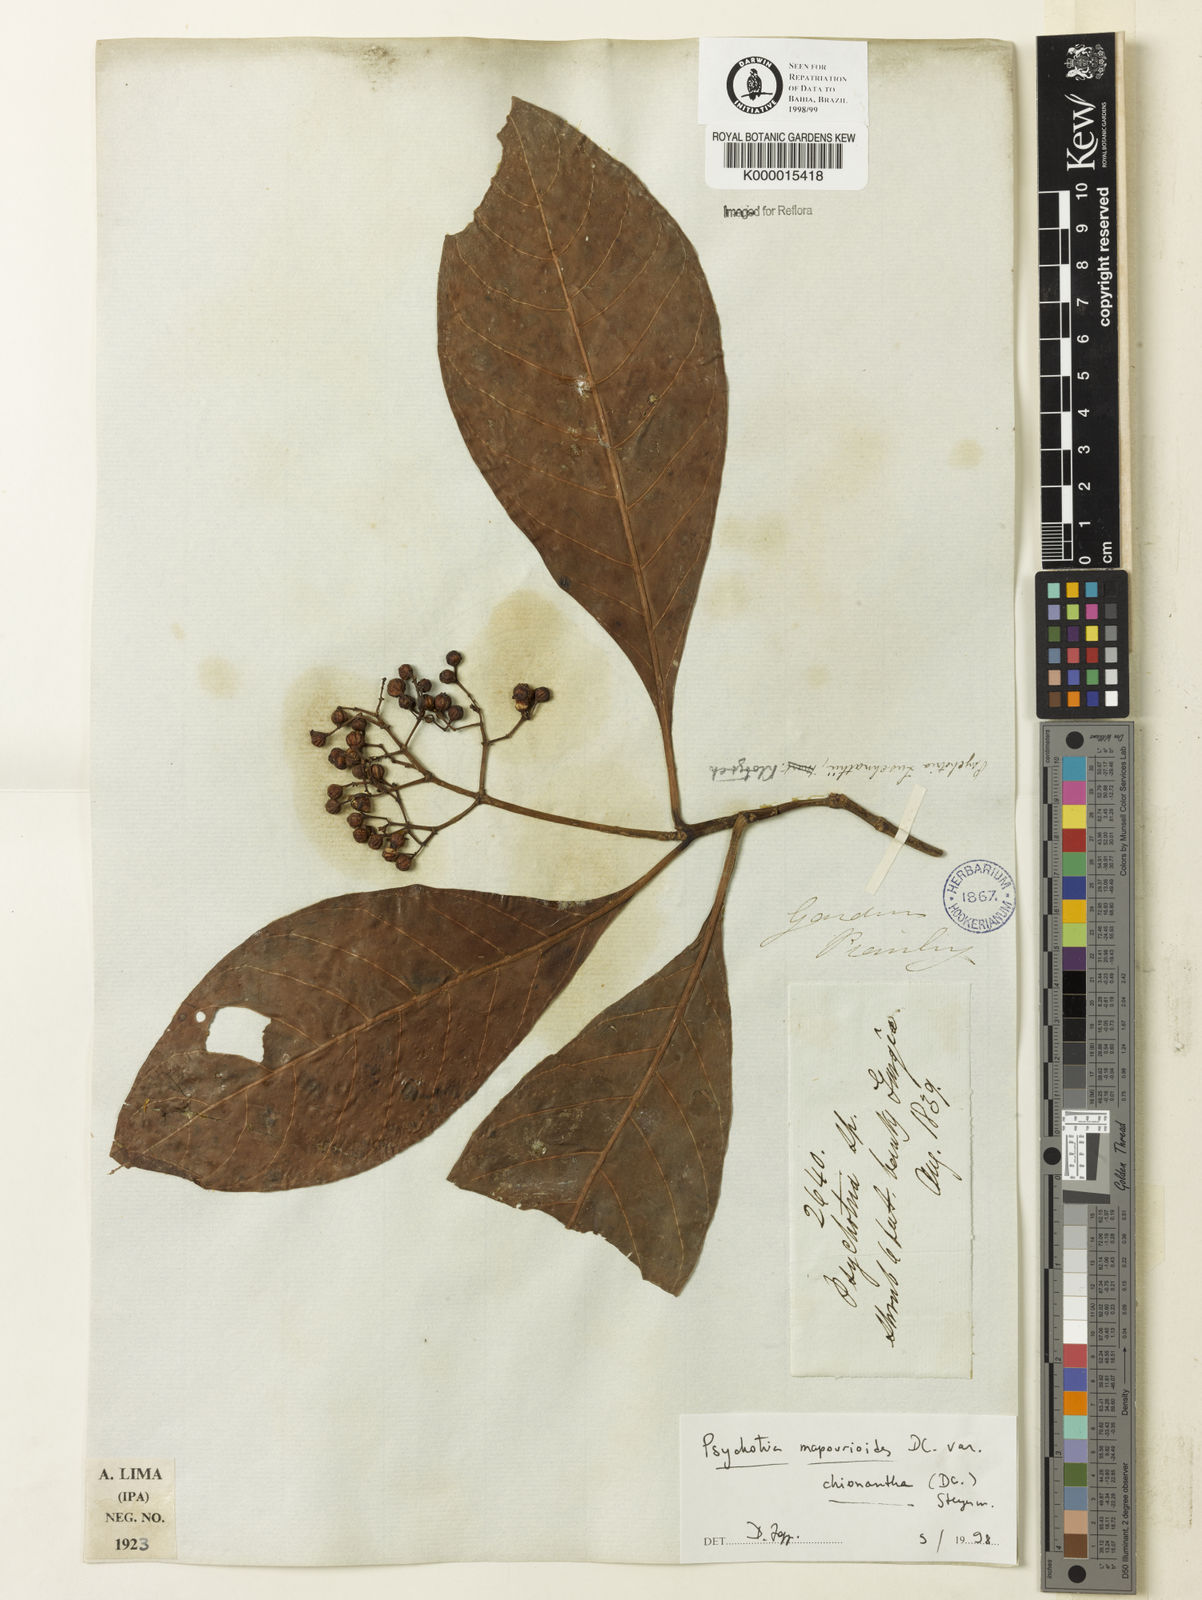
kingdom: Plantae
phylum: Tracheophyta
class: Magnoliopsida
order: Gentianales
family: Rubiaceae
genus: Psychotria
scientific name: Psychotria carthagenensis
